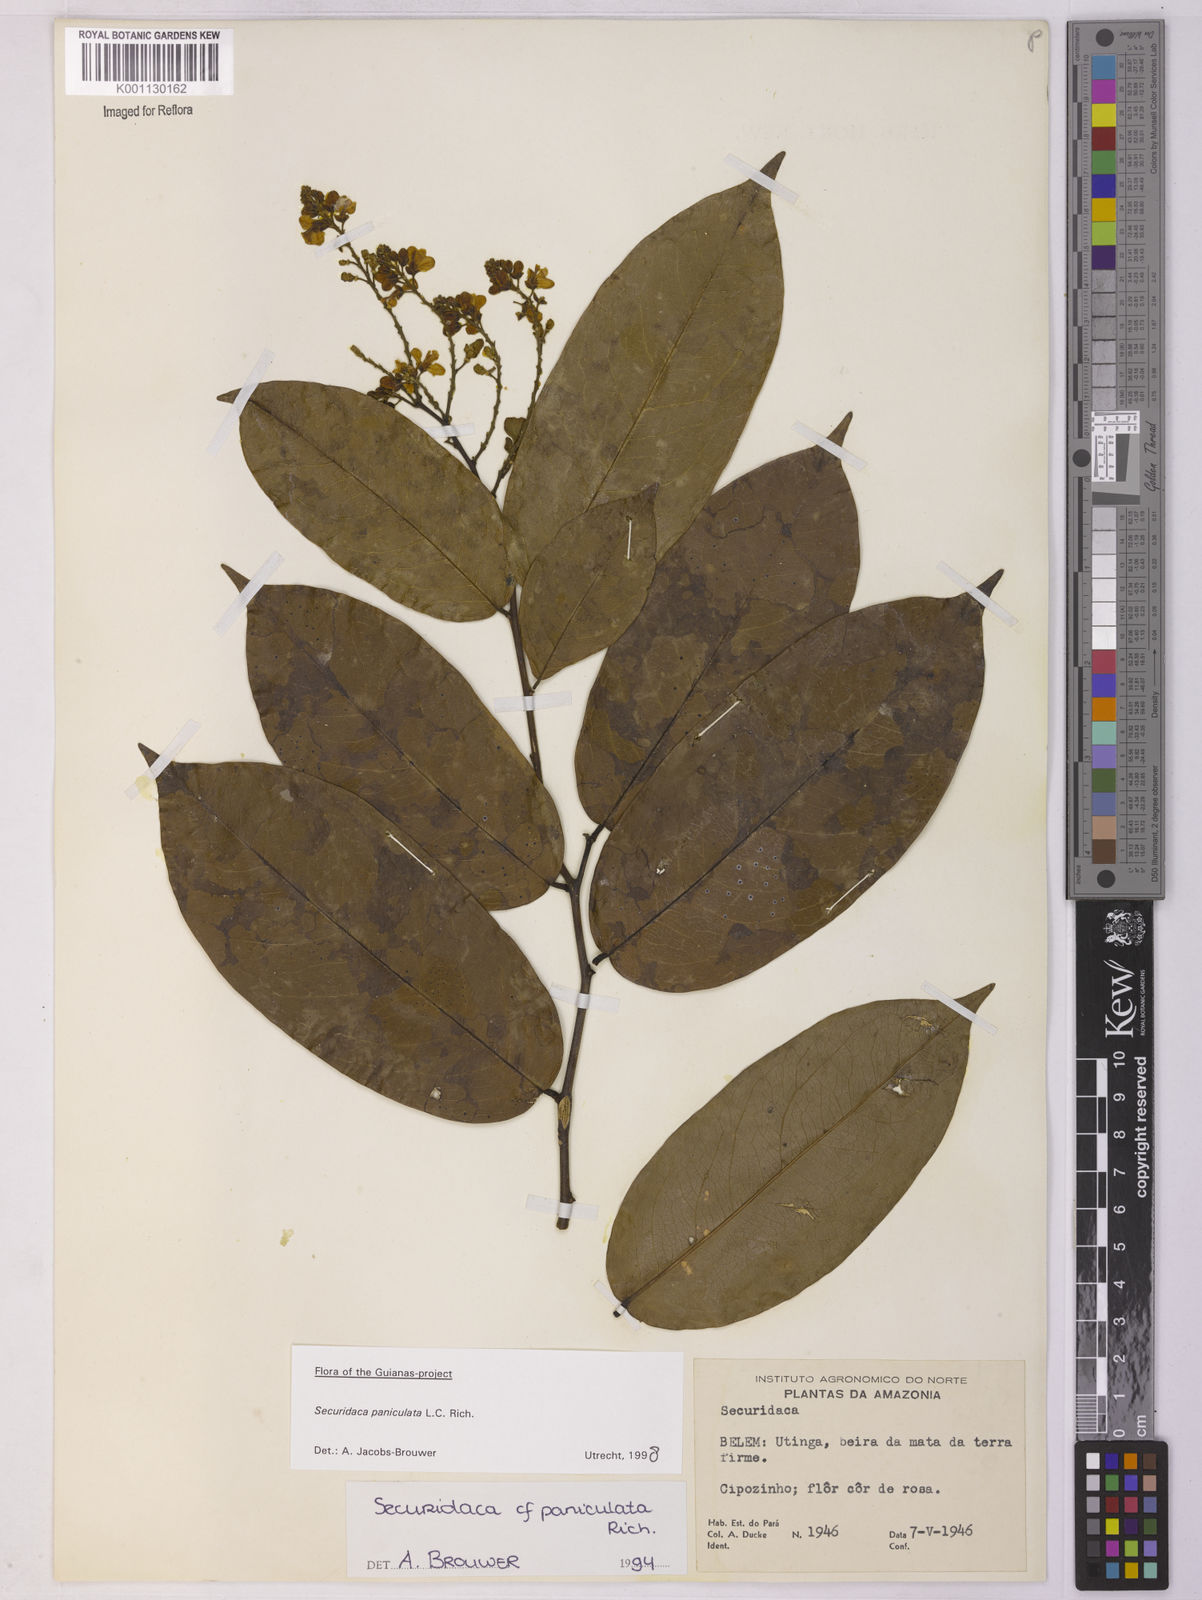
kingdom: Plantae
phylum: Tracheophyta
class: Magnoliopsida
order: Fabales
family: Polygalaceae
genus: Securidaca
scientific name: Securidaca paniculata
